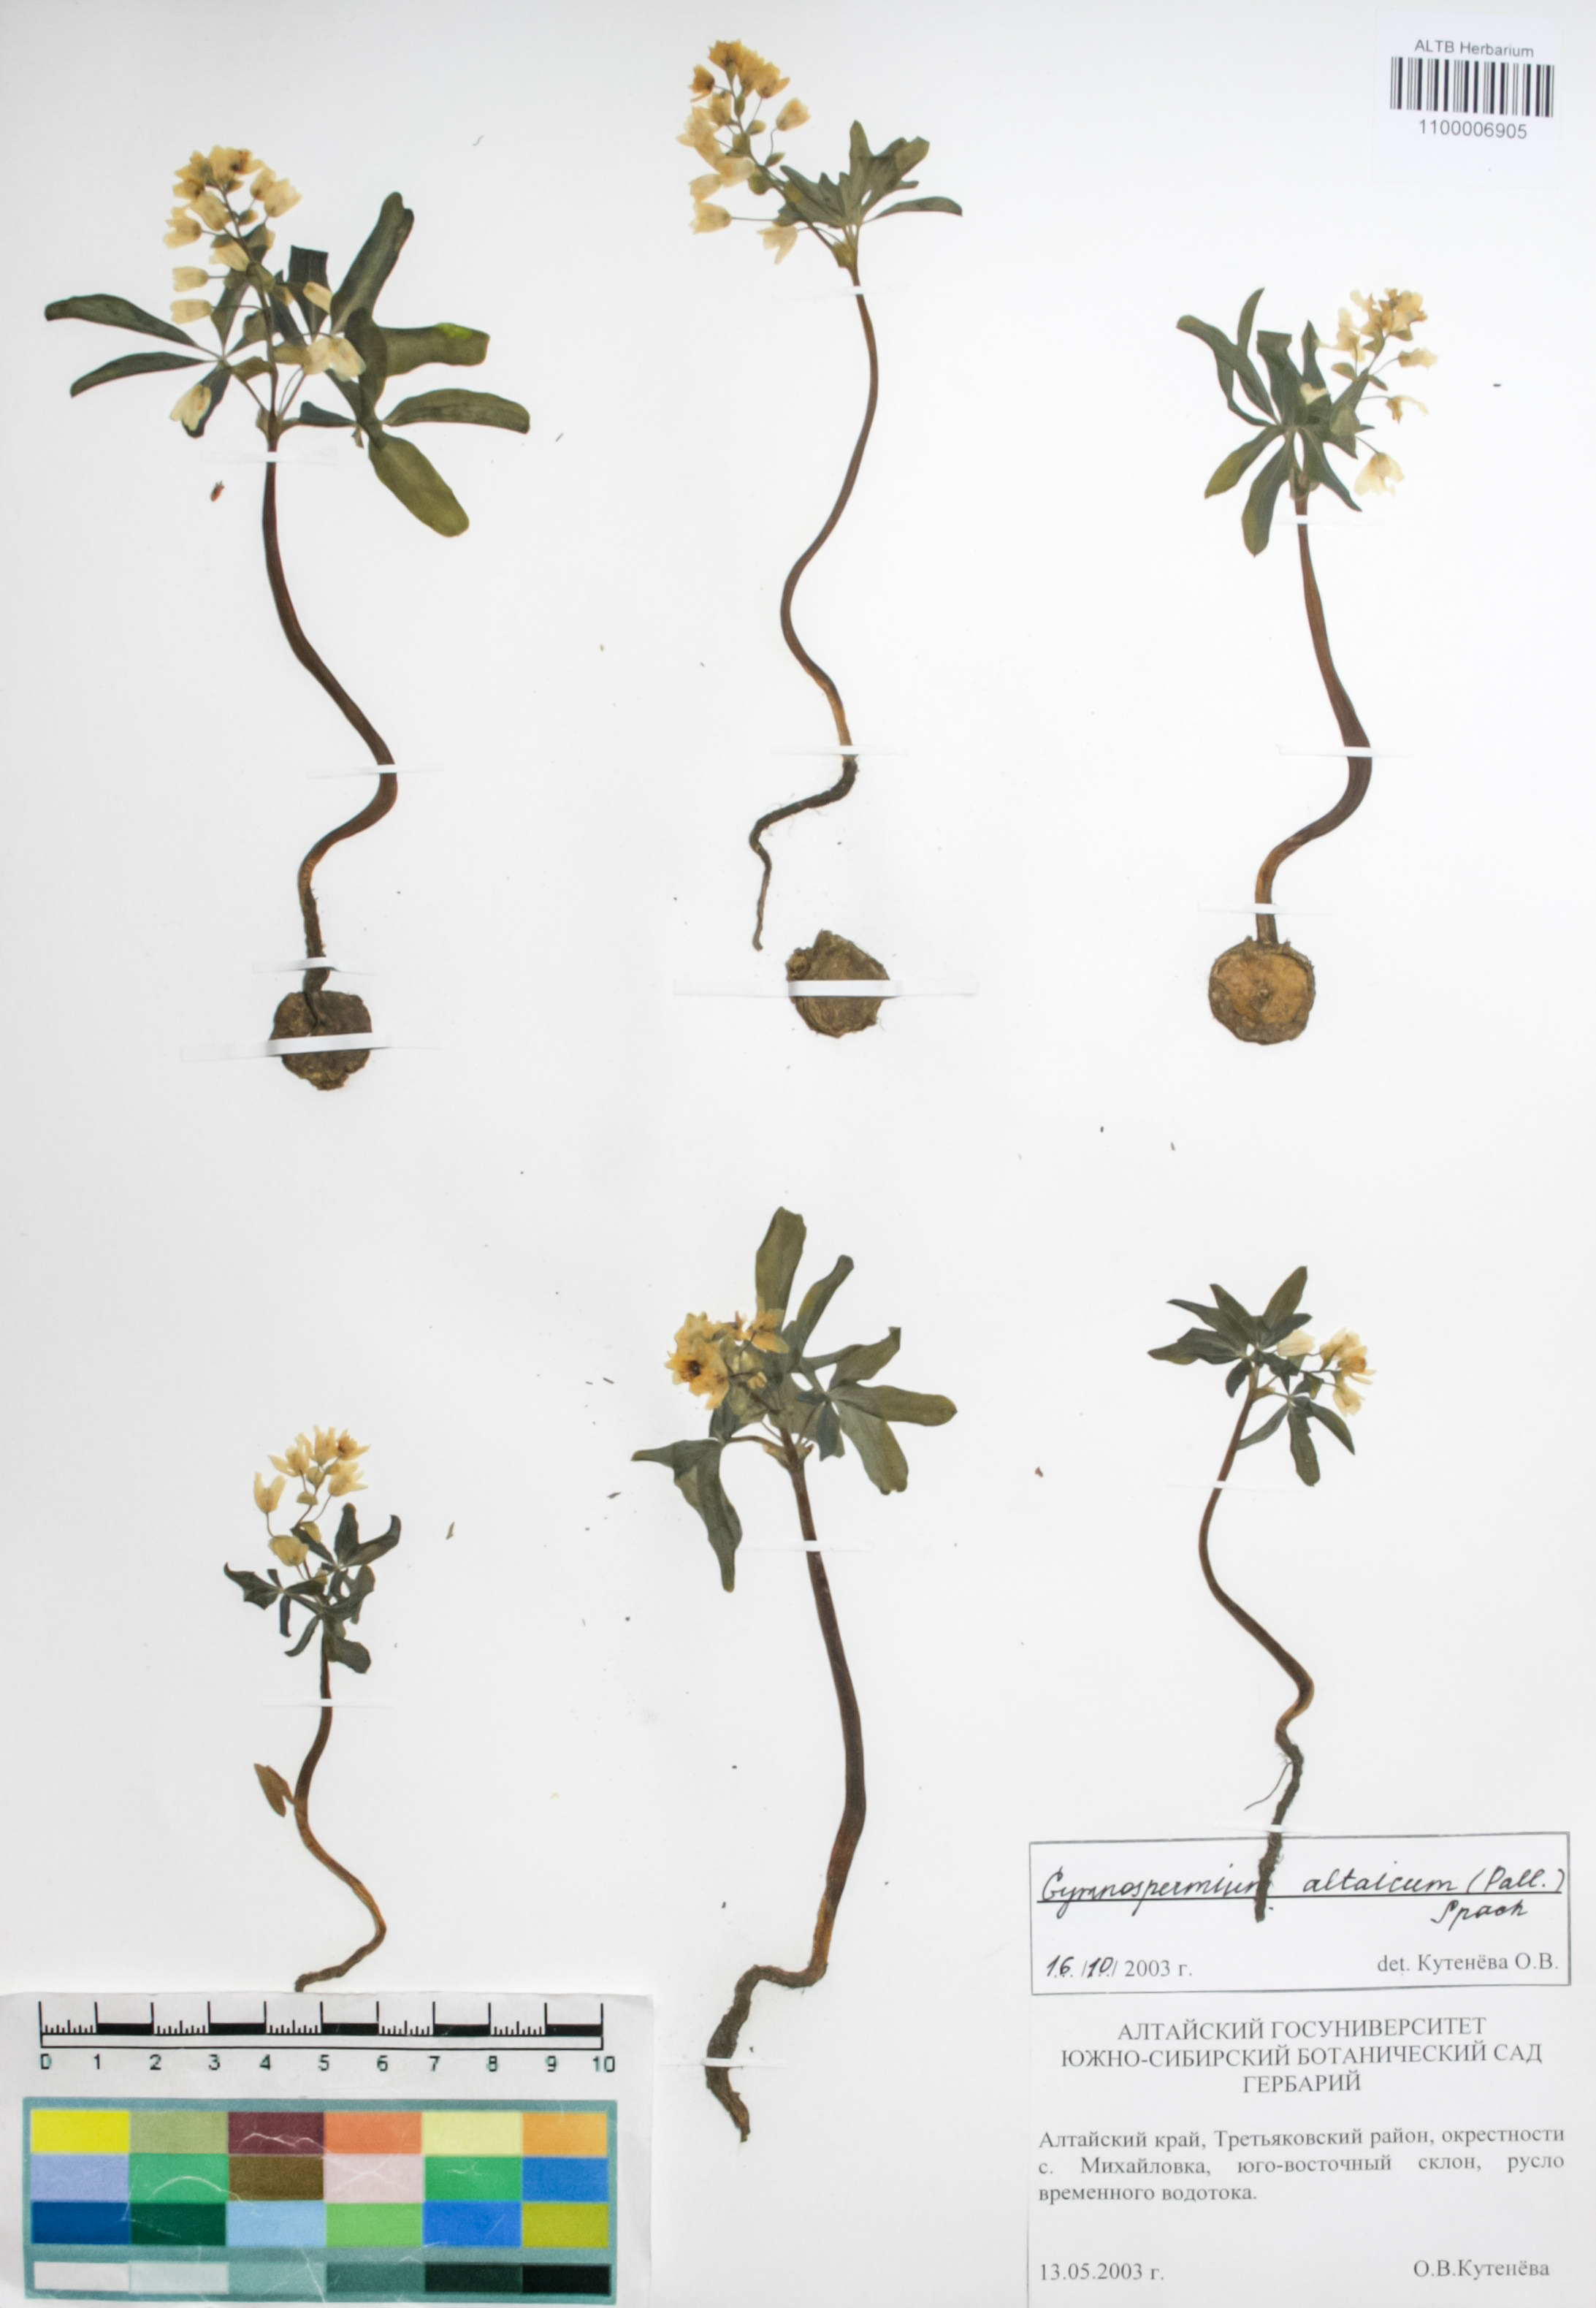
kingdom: Plantae
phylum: Tracheophyta
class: Magnoliopsida
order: Ranunculales
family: Berberidaceae
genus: Gymnospermium
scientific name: Gymnospermium altaicum
